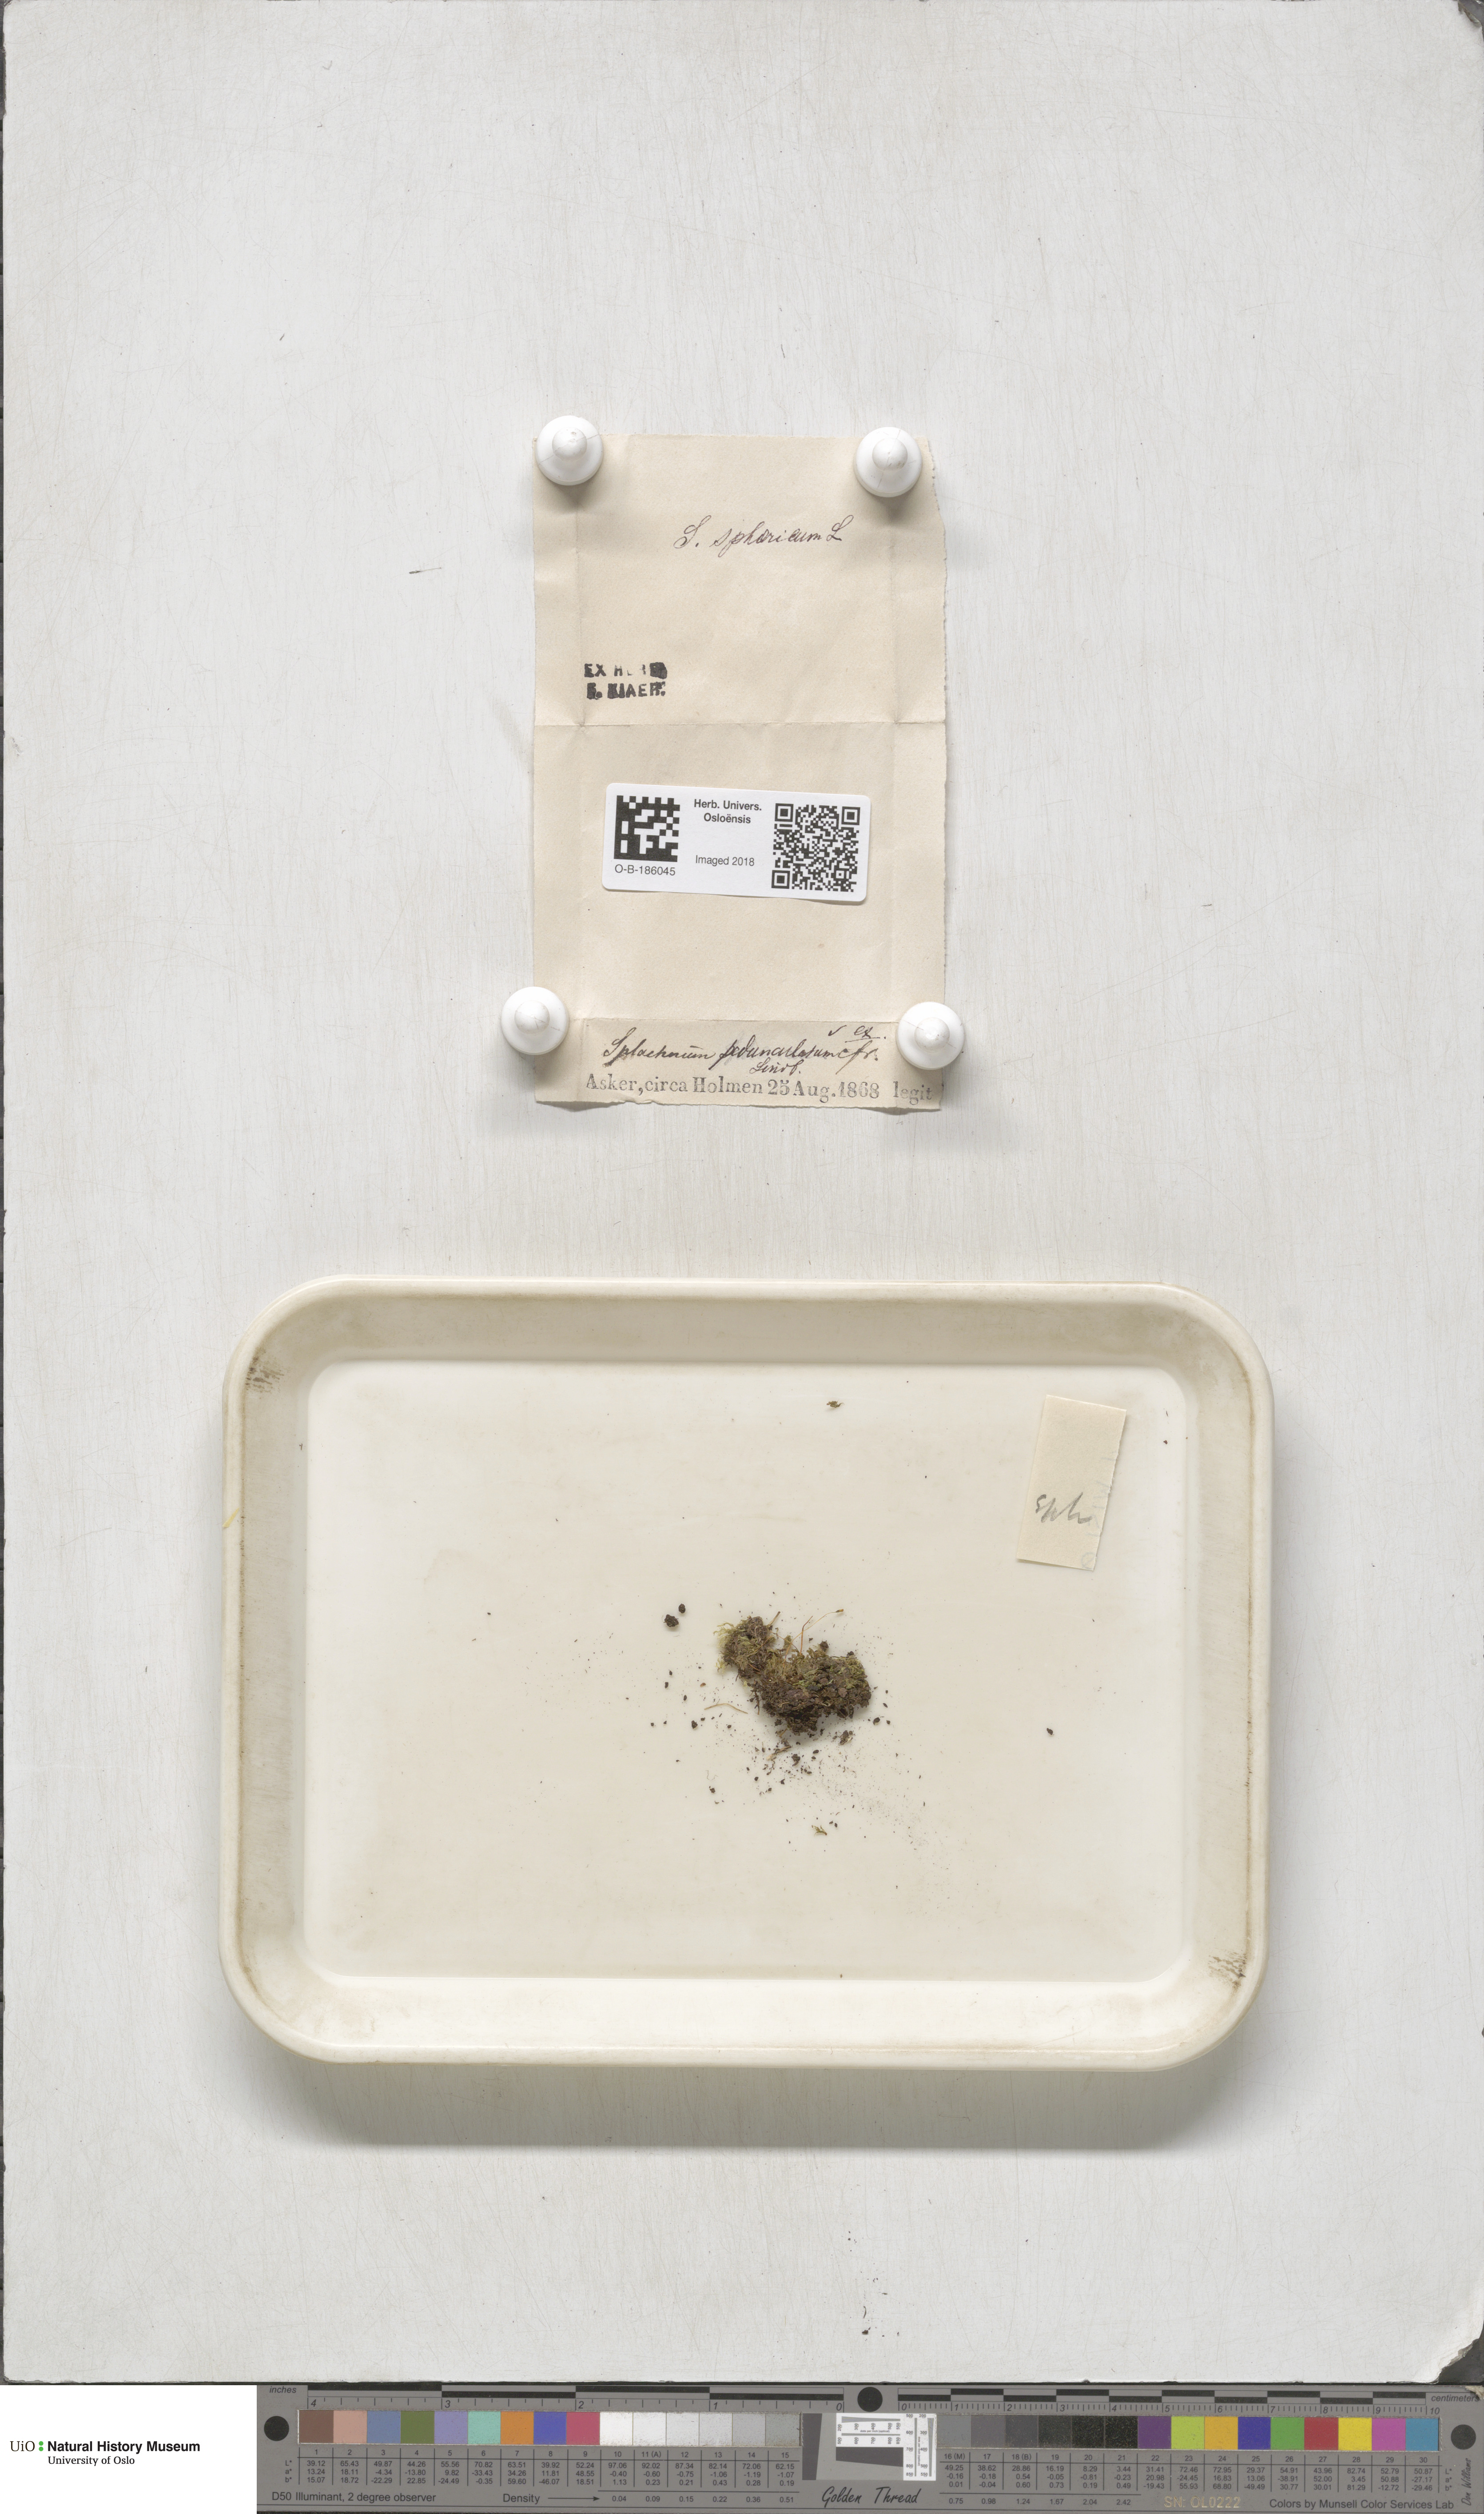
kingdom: Plantae
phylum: Bryophyta
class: Bryopsida
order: Splachnales
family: Splachnaceae
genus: Splachnum
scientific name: Splachnum sphaericum
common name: Round-fruited dung moss
